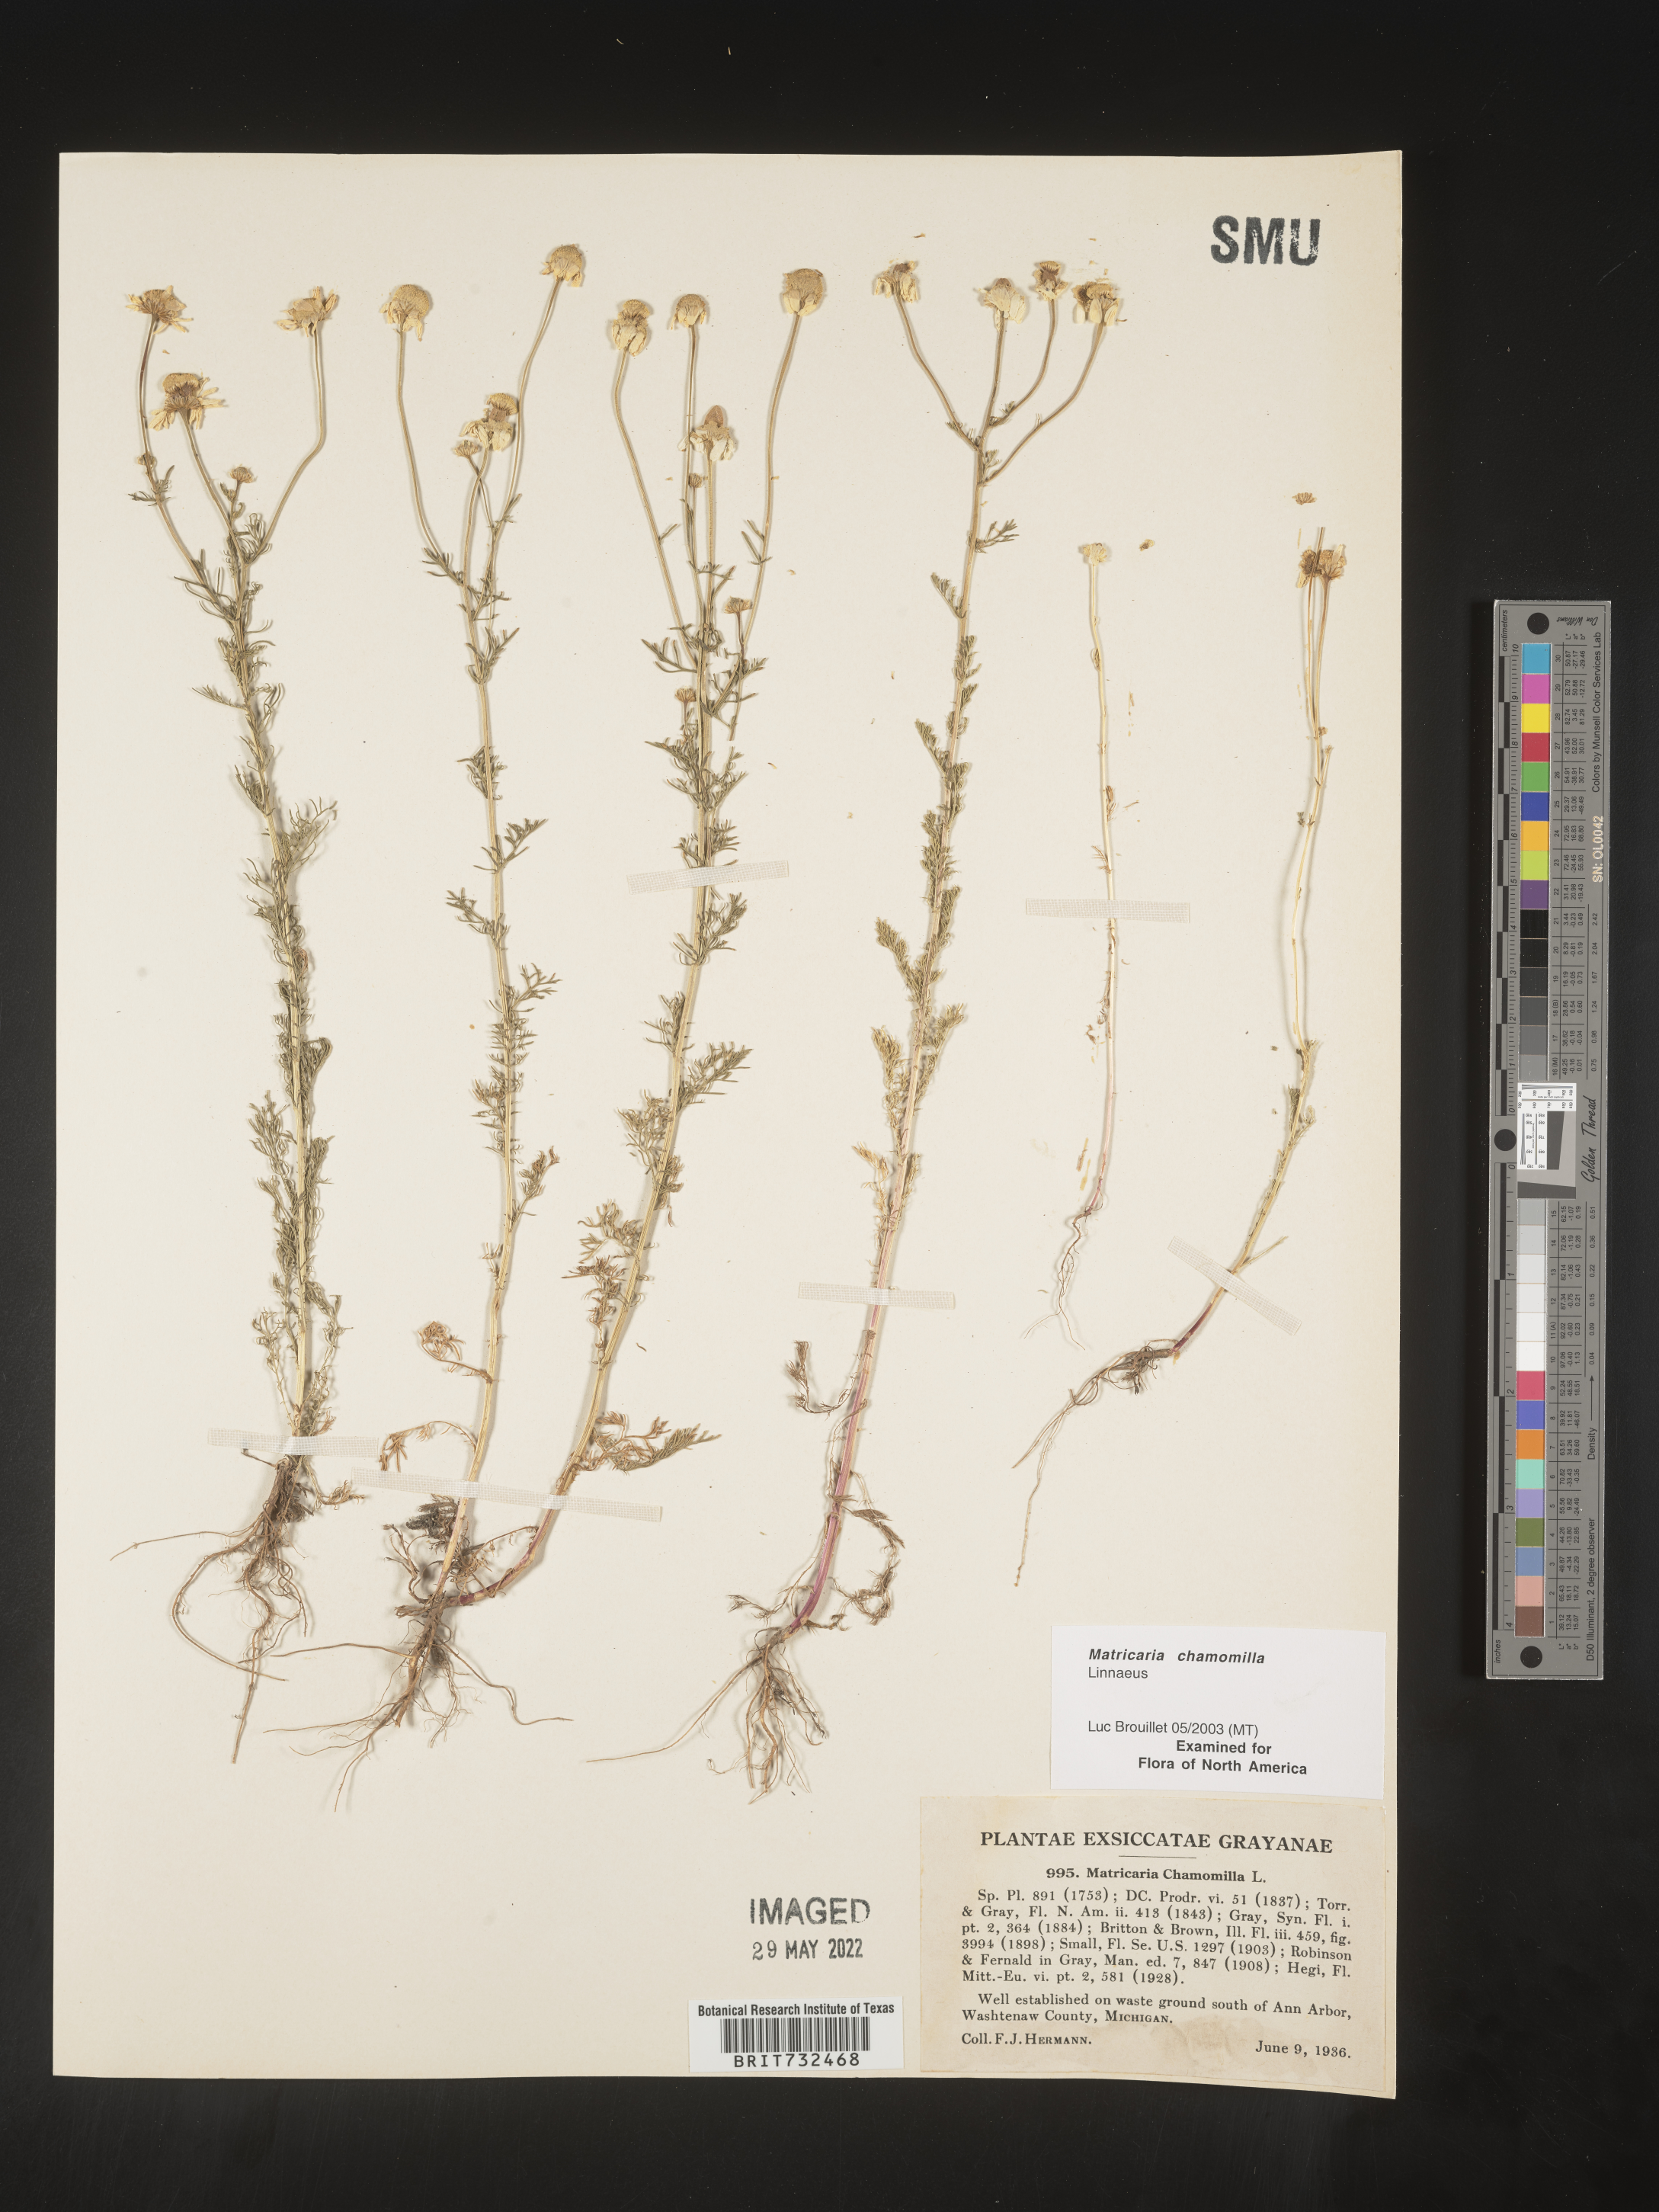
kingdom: Plantae
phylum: Tracheophyta
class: Magnoliopsida
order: Asterales
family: Asteraceae
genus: Matricaria
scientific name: Matricaria chamomilla
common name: Scented mayweed
